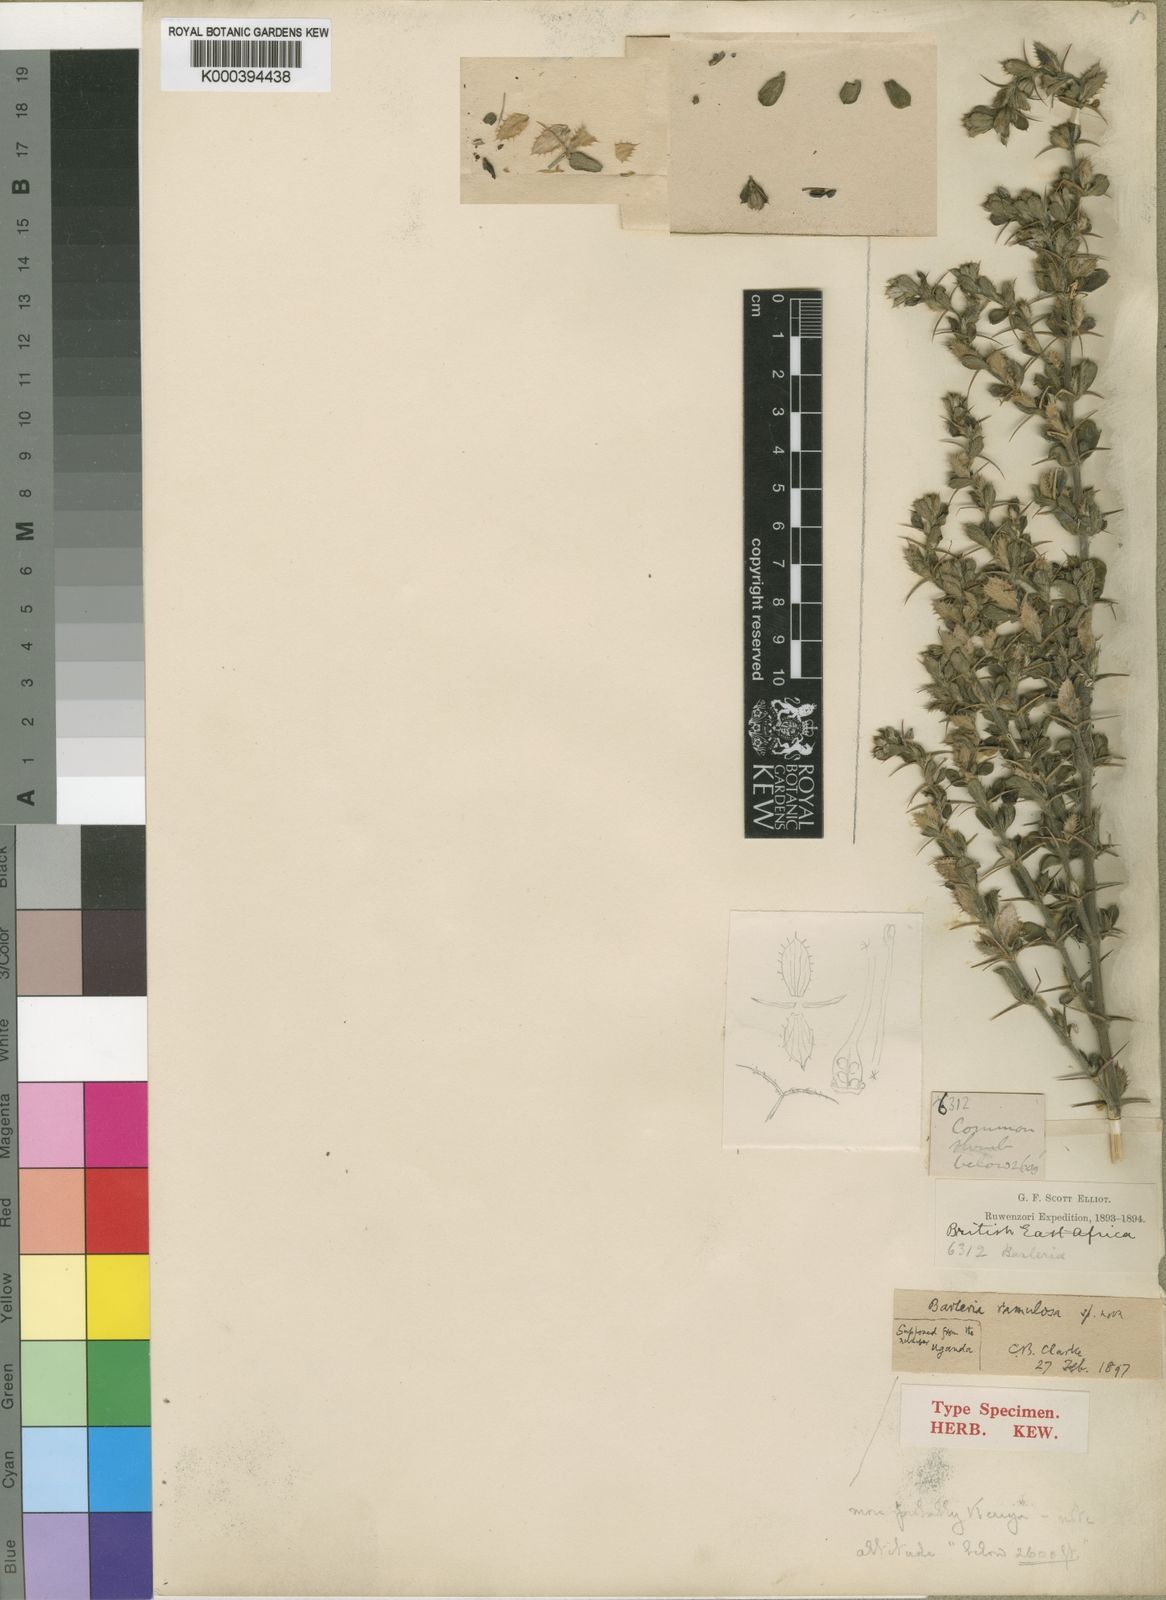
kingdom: Plantae
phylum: Tracheophyta
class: Magnoliopsida
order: Lamiales
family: Acanthaceae
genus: Barleria
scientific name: Barleria ramulosa
